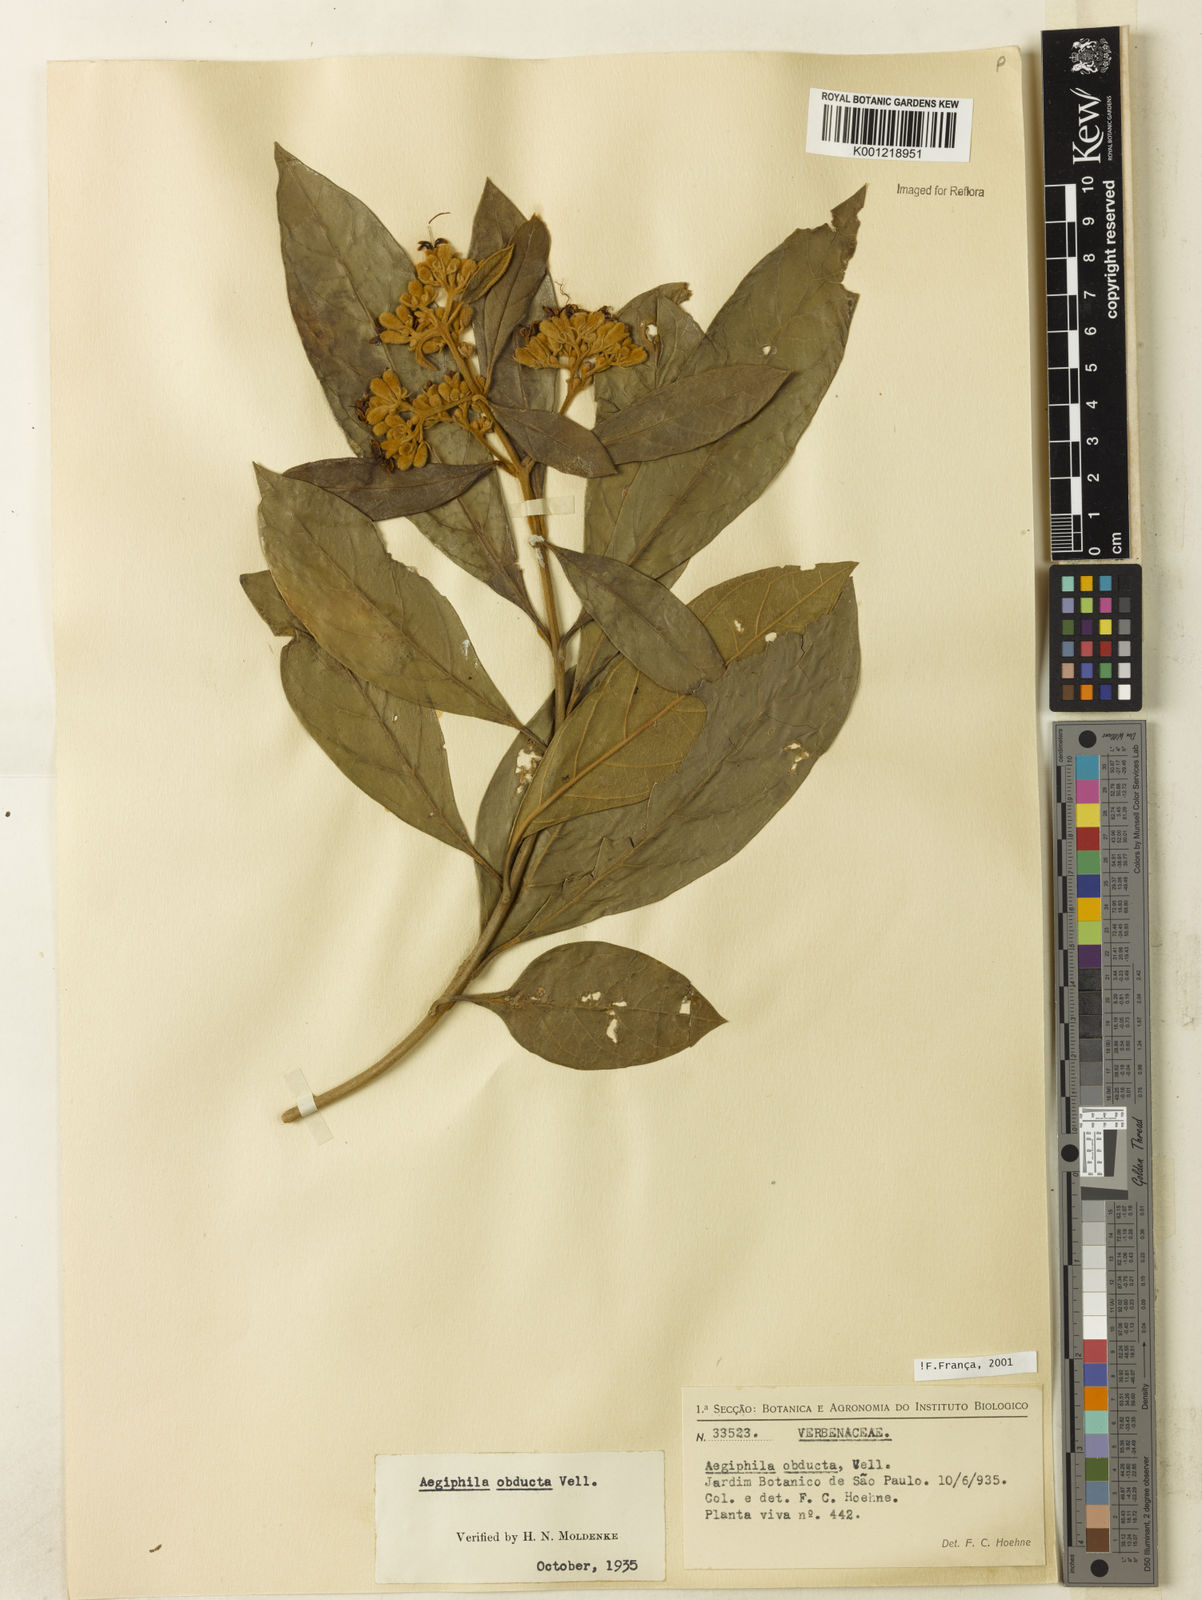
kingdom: Plantae
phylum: Tracheophyta
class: Magnoliopsida
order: Lamiales
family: Lamiaceae
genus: Aegiphila
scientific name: Aegiphila obducta
